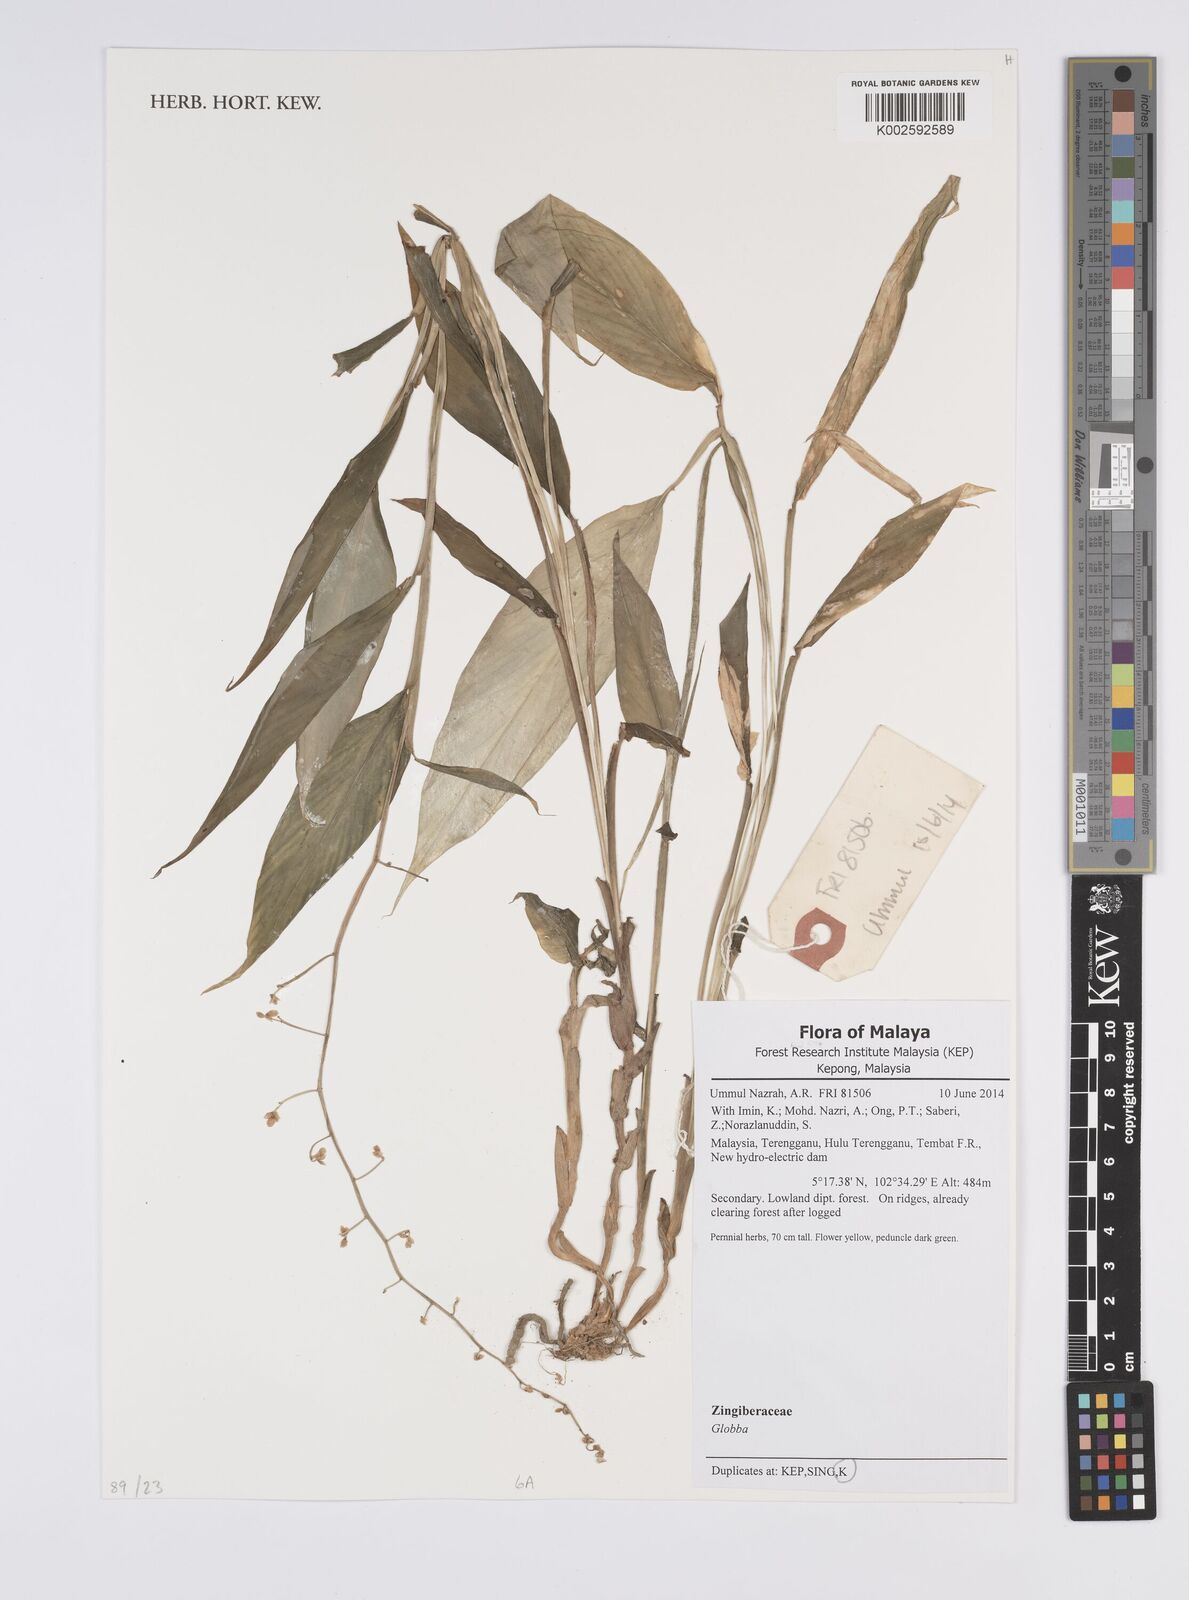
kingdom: Plantae
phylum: Tracheophyta
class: Liliopsida
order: Zingiberales
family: Zingiberaceae
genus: Globba
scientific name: Globba
